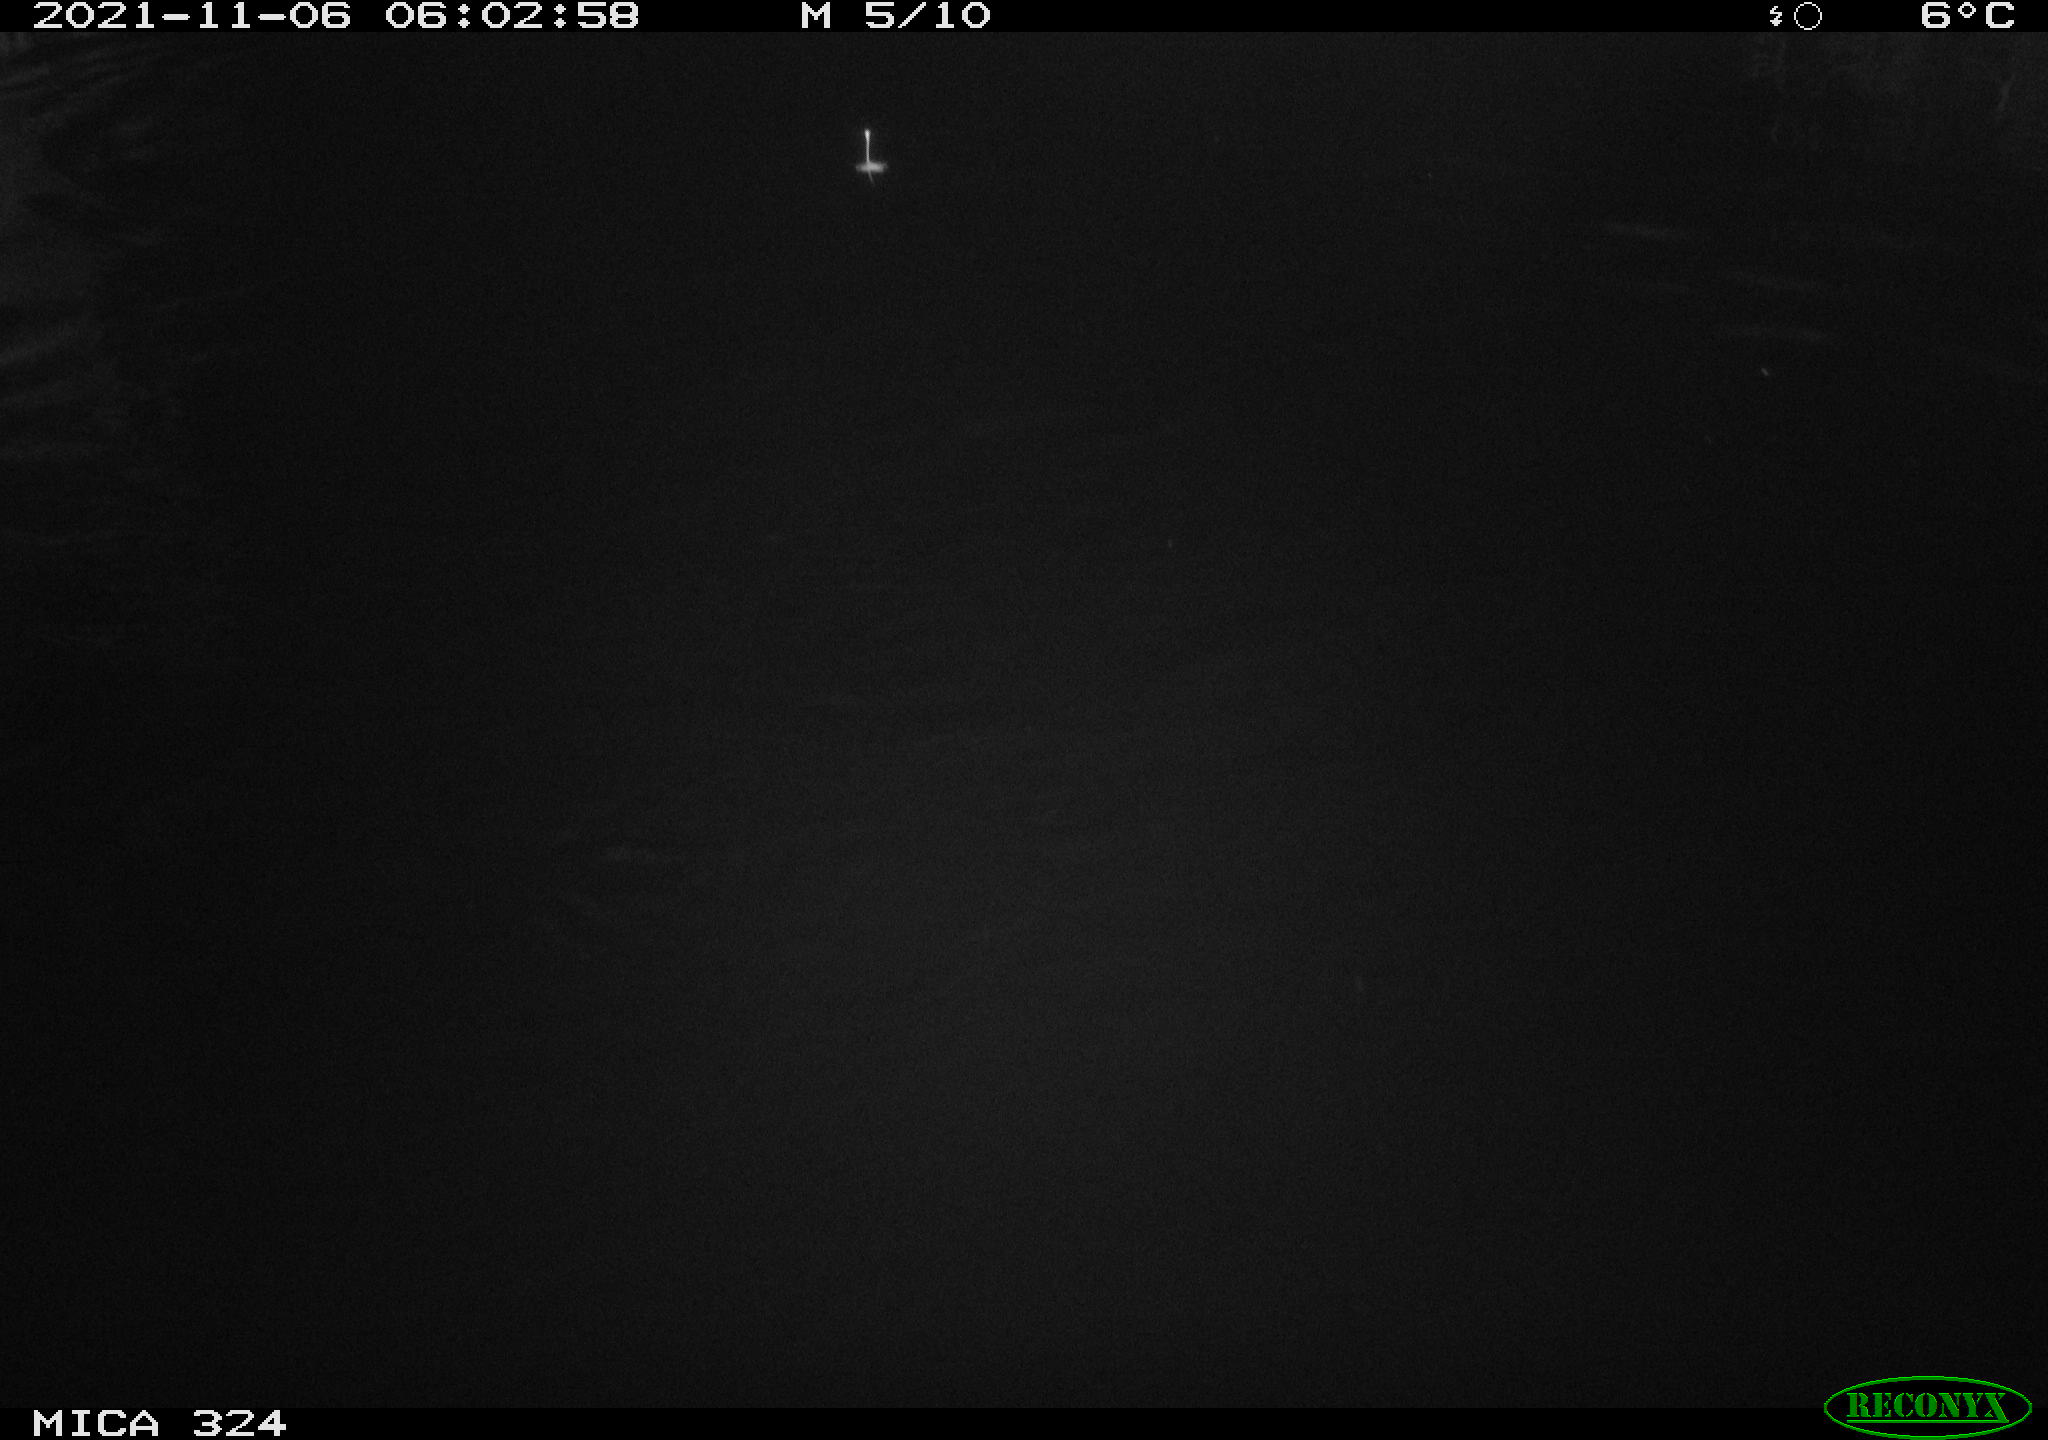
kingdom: Animalia
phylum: Chordata
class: Mammalia
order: Rodentia
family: Cricetidae
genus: Ondatra
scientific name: Ondatra zibethicus
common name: Muskrat
